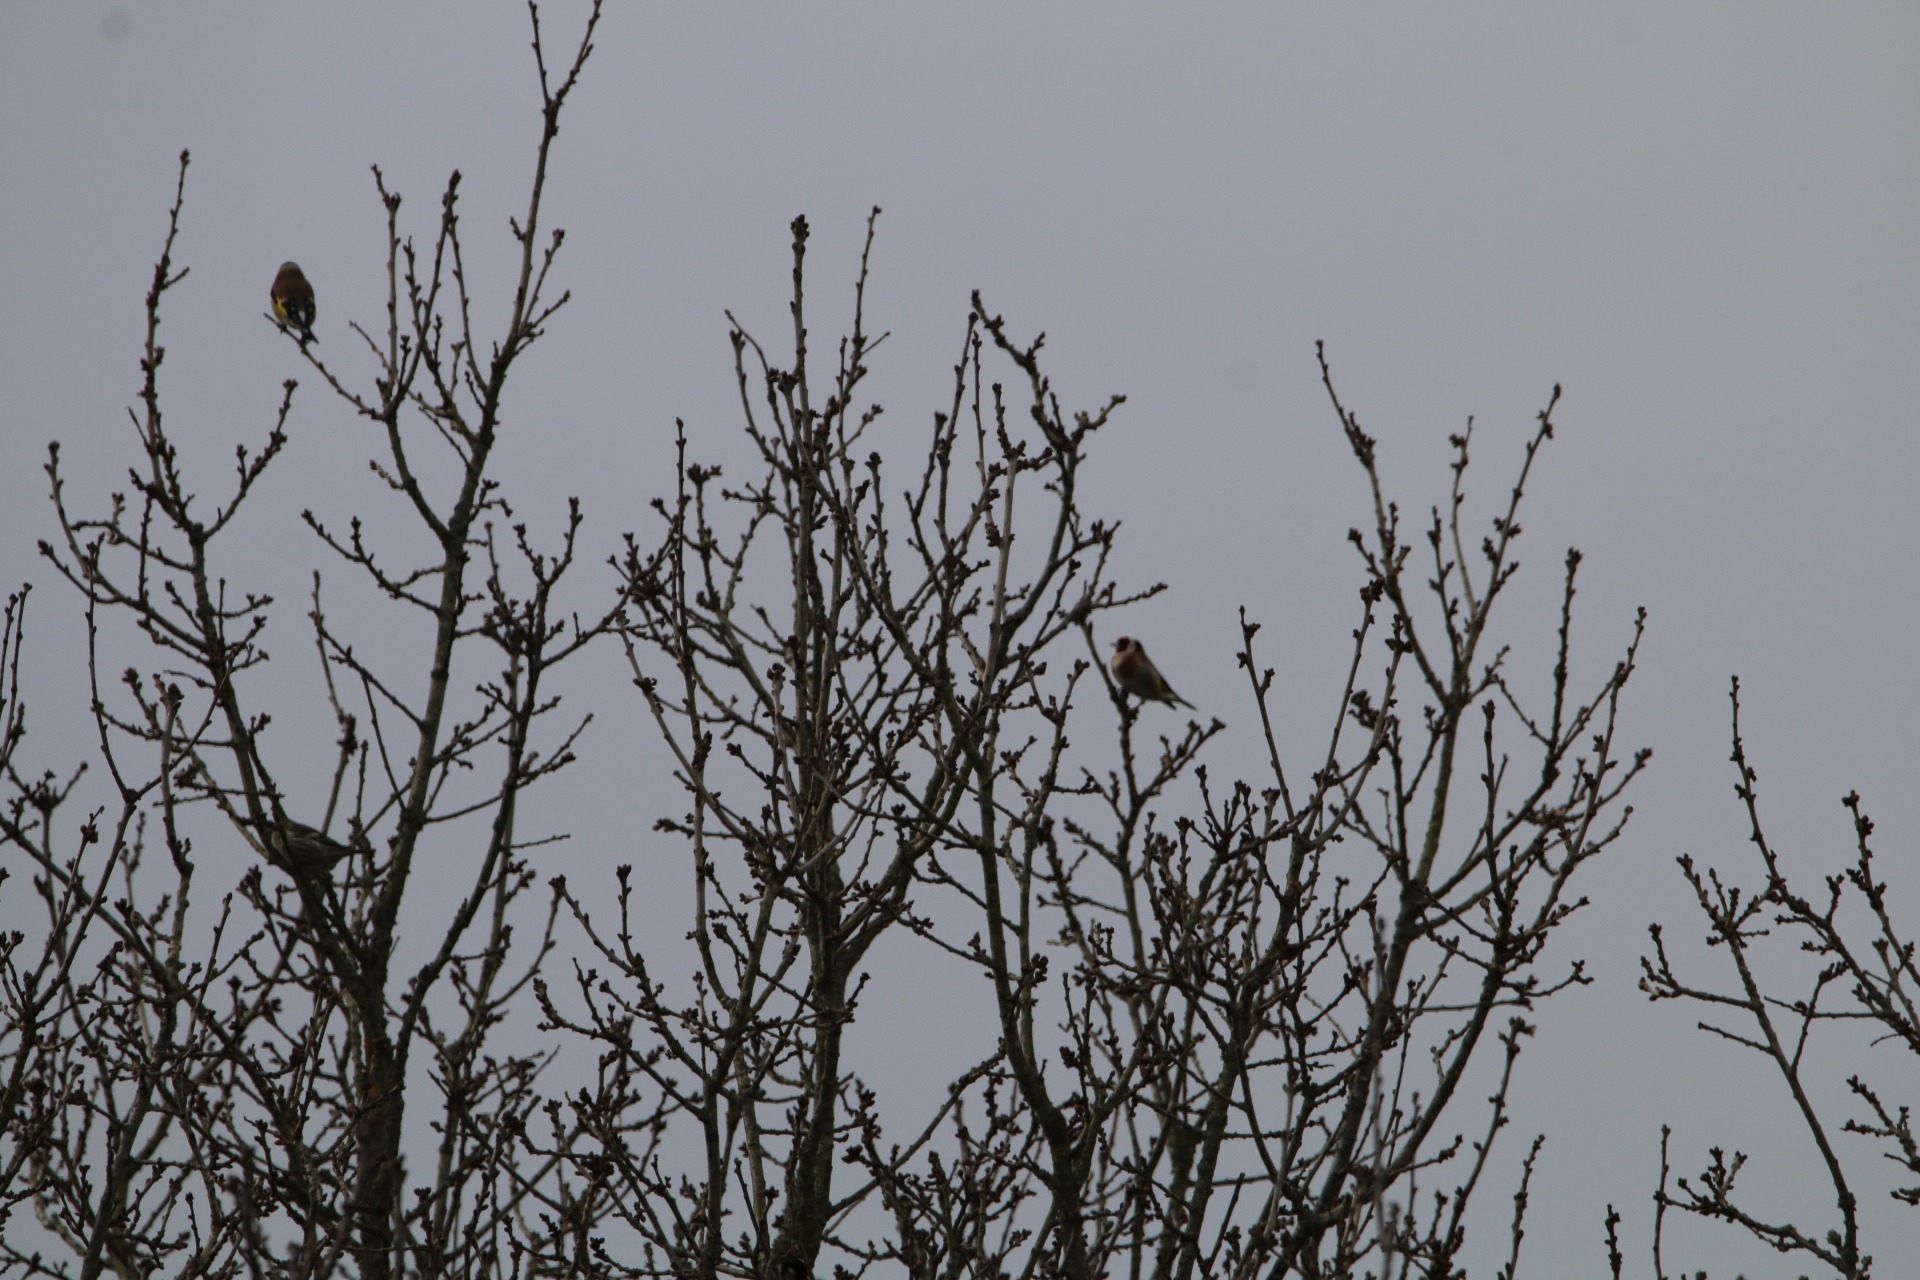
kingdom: Animalia
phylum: Chordata
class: Aves
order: Passeriformes
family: Fringillidae
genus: Carduelis
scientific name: Carduelis carduelis
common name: Stillits
